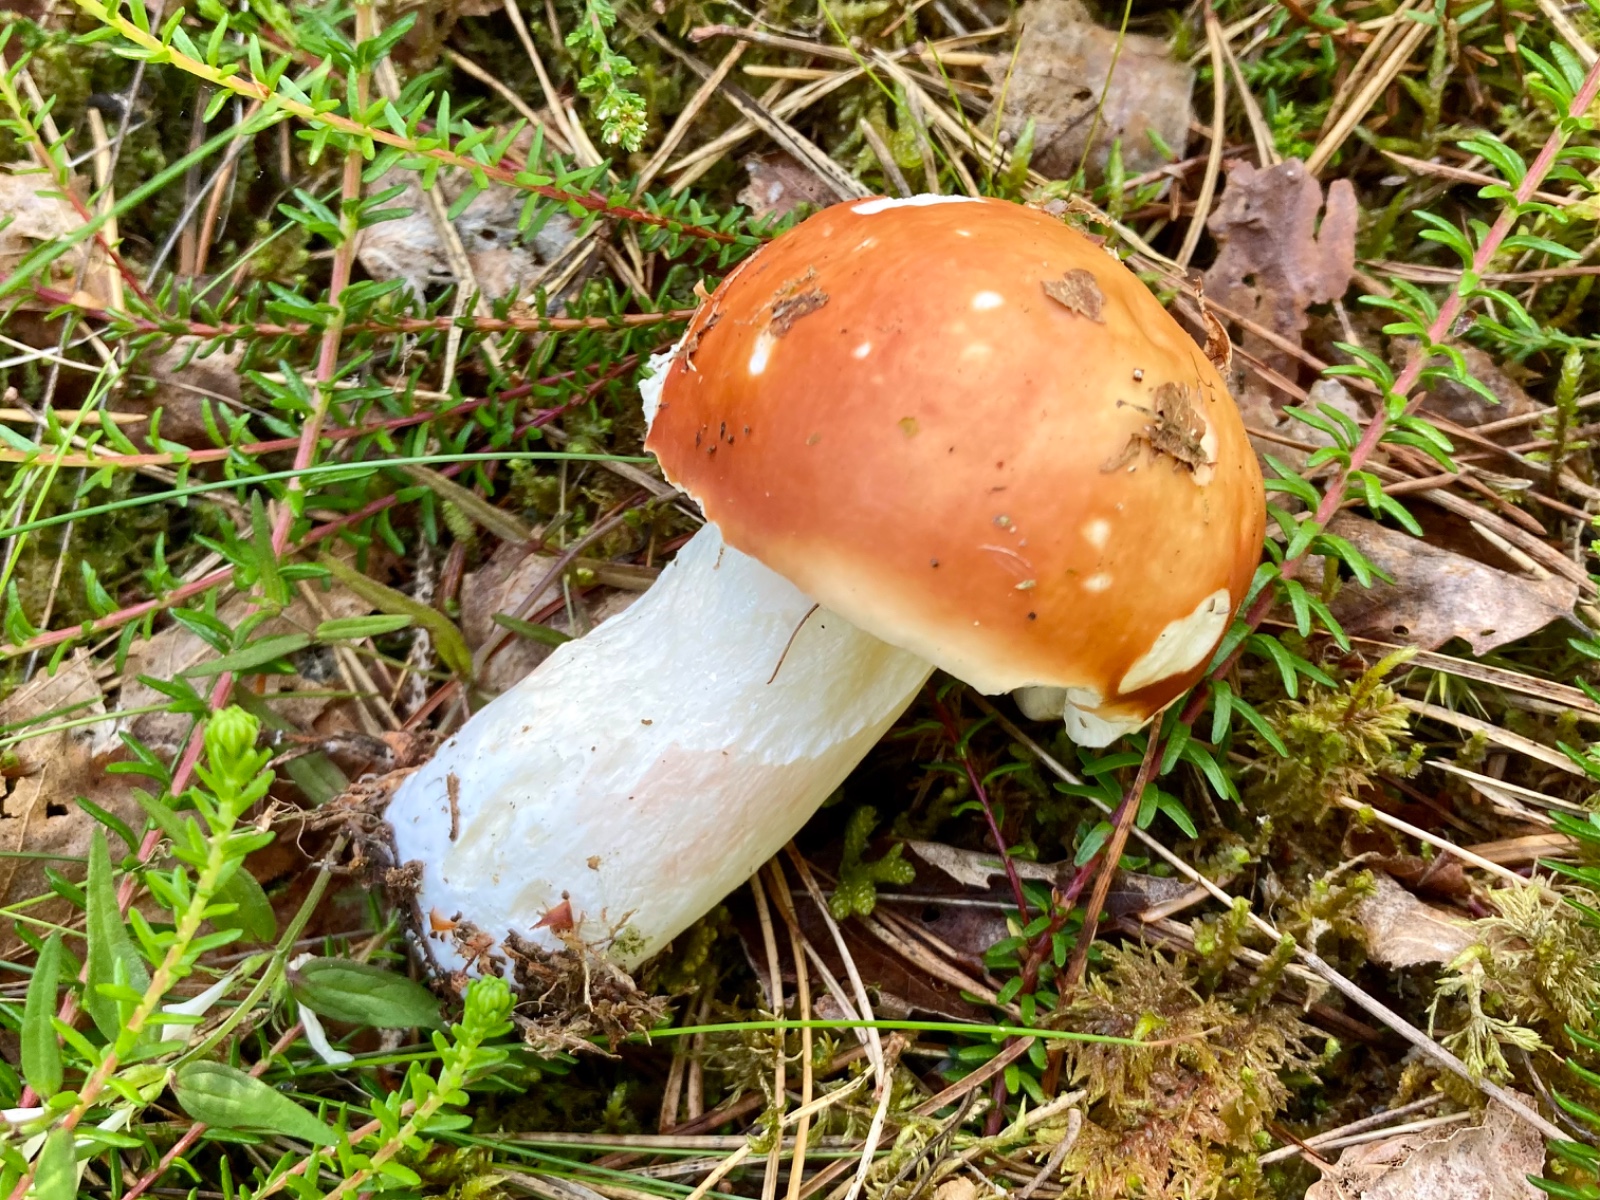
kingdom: Fungi
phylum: Basidiomycota
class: Agaricomycetes
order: Russulales
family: Russulaceae
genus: Russula
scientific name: Russula paludosa
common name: prægtig skørhat
